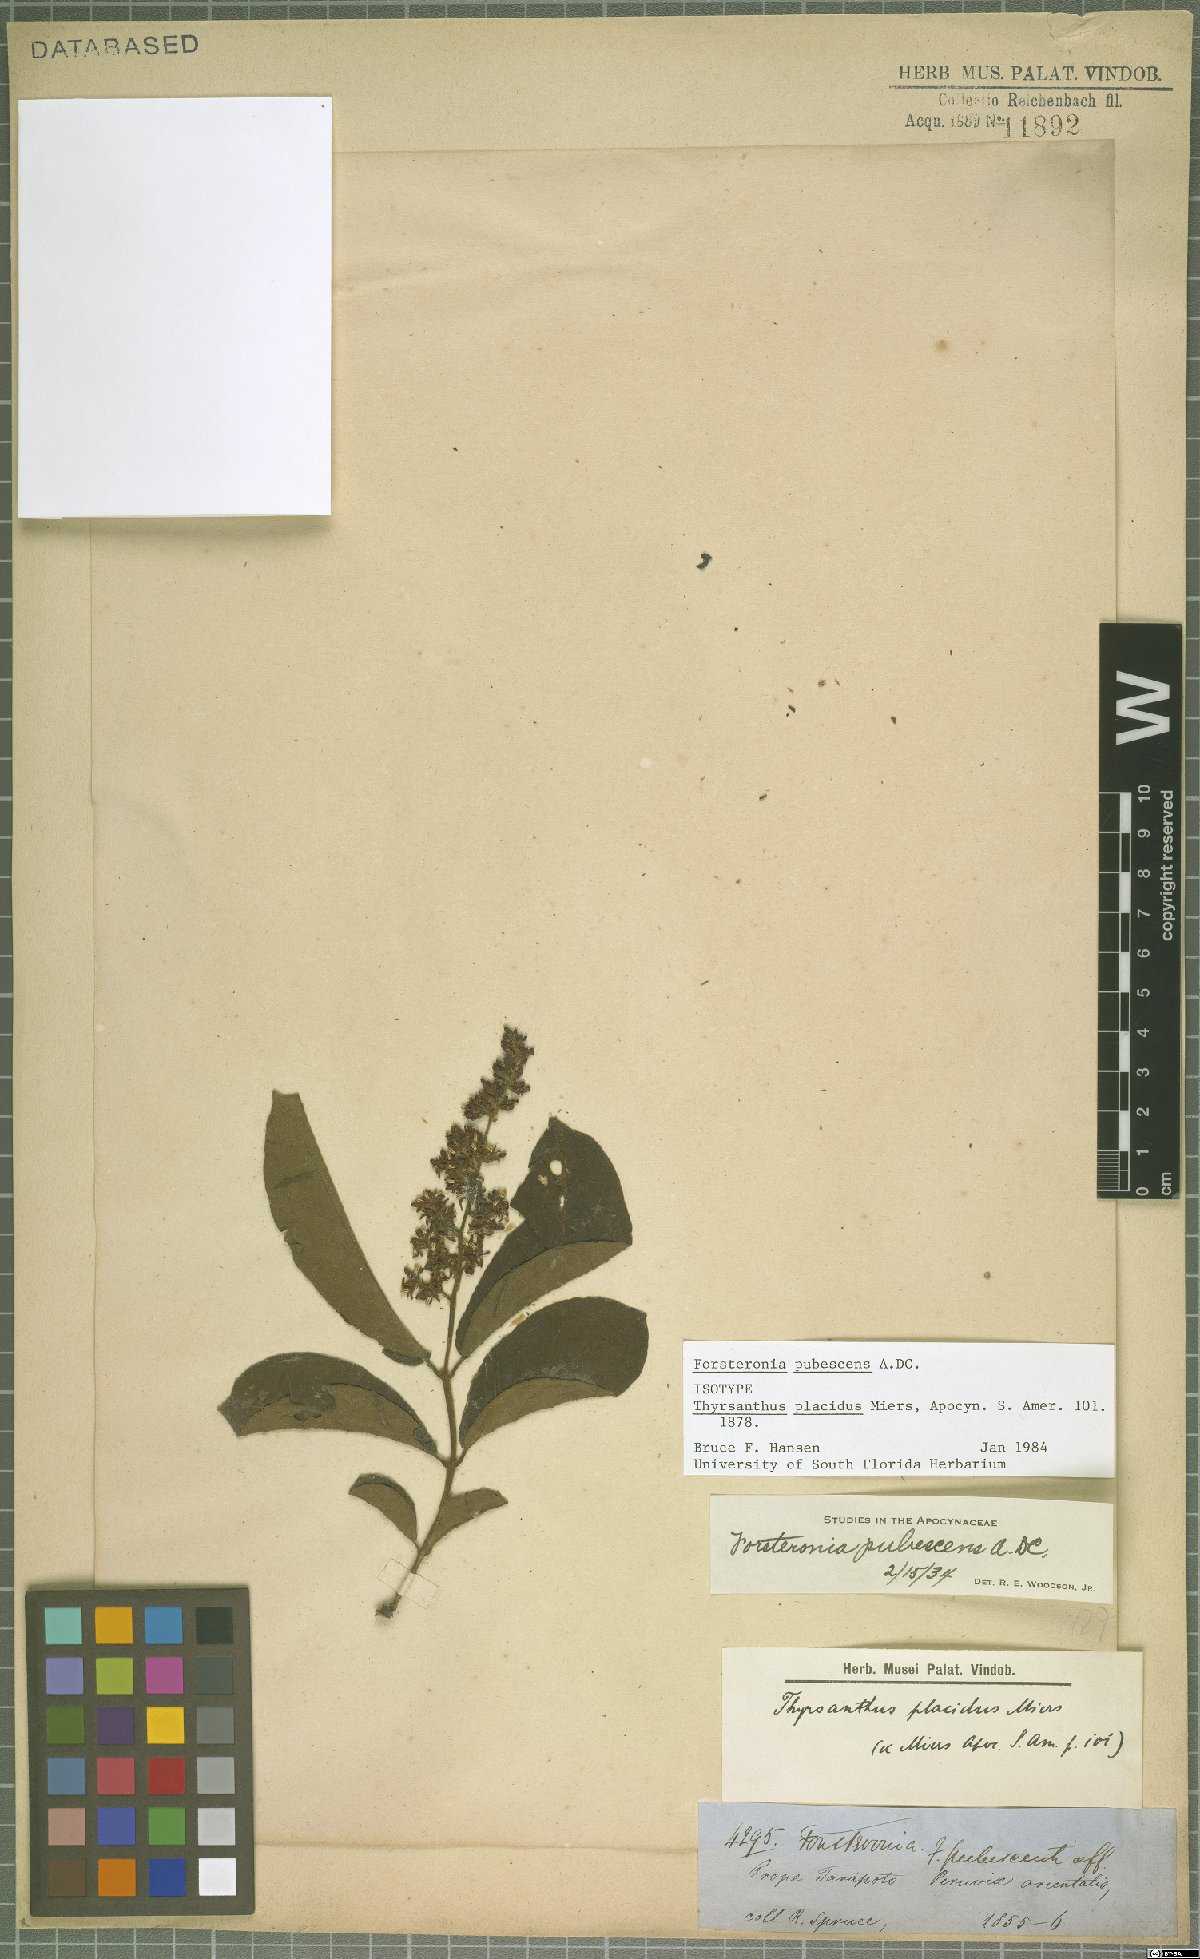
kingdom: Plantae
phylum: Tracheophyta
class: Magnoliopsida
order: Gentianales
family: Apocynaceae
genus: Forsteronia
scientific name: Forsteronia pubescens
